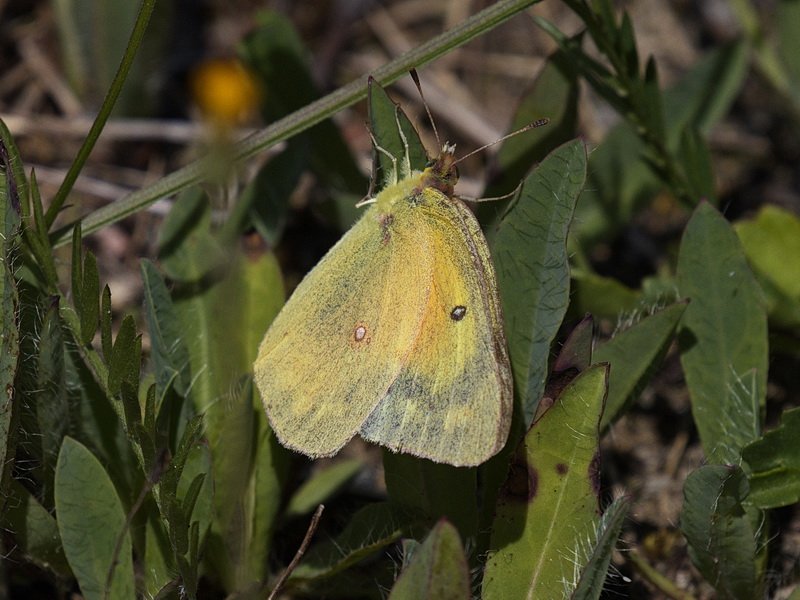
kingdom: Animalia
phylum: Arthropoda
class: Insecta
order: Lepidoptera
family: Pieridae
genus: Colias
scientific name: Colias eurytheme
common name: Orange Sulphur
